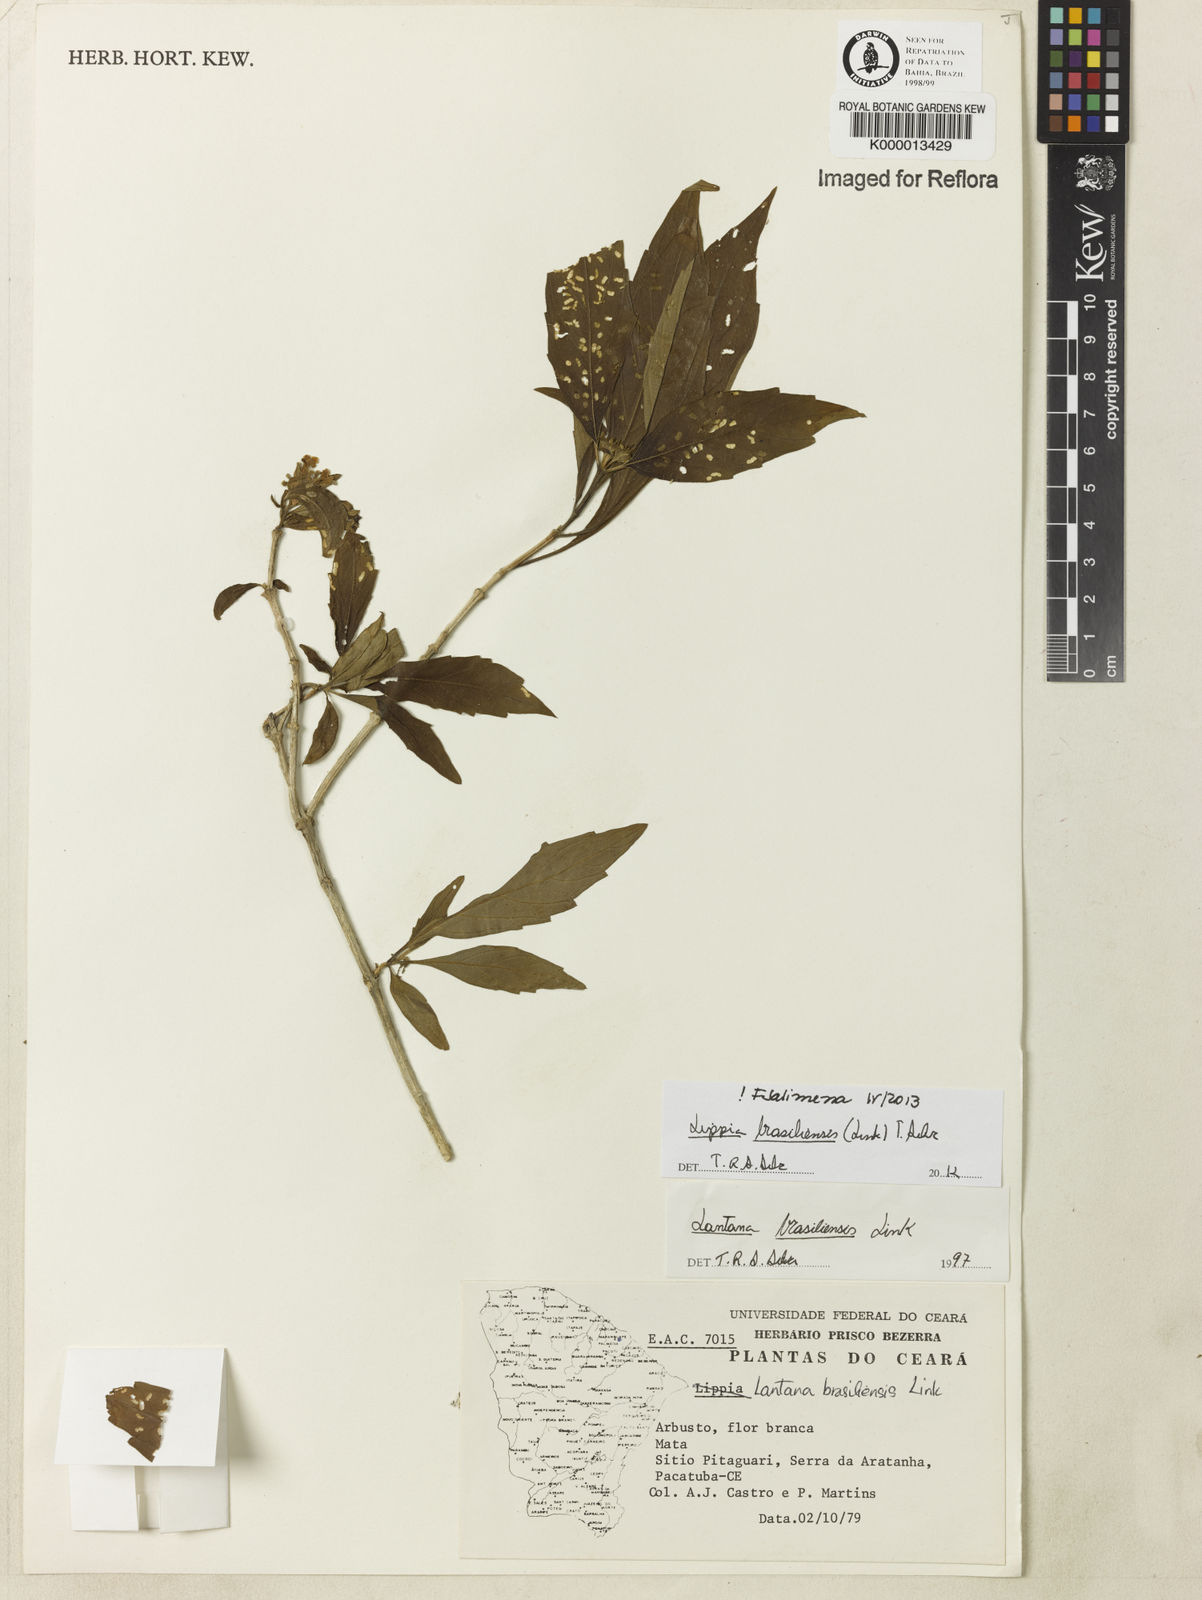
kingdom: Plantae
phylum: Tracheophyta
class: Magnoliopsida
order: Lamiales
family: Verbenaceae
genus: Lippia
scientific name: Lippia brasiliensis
